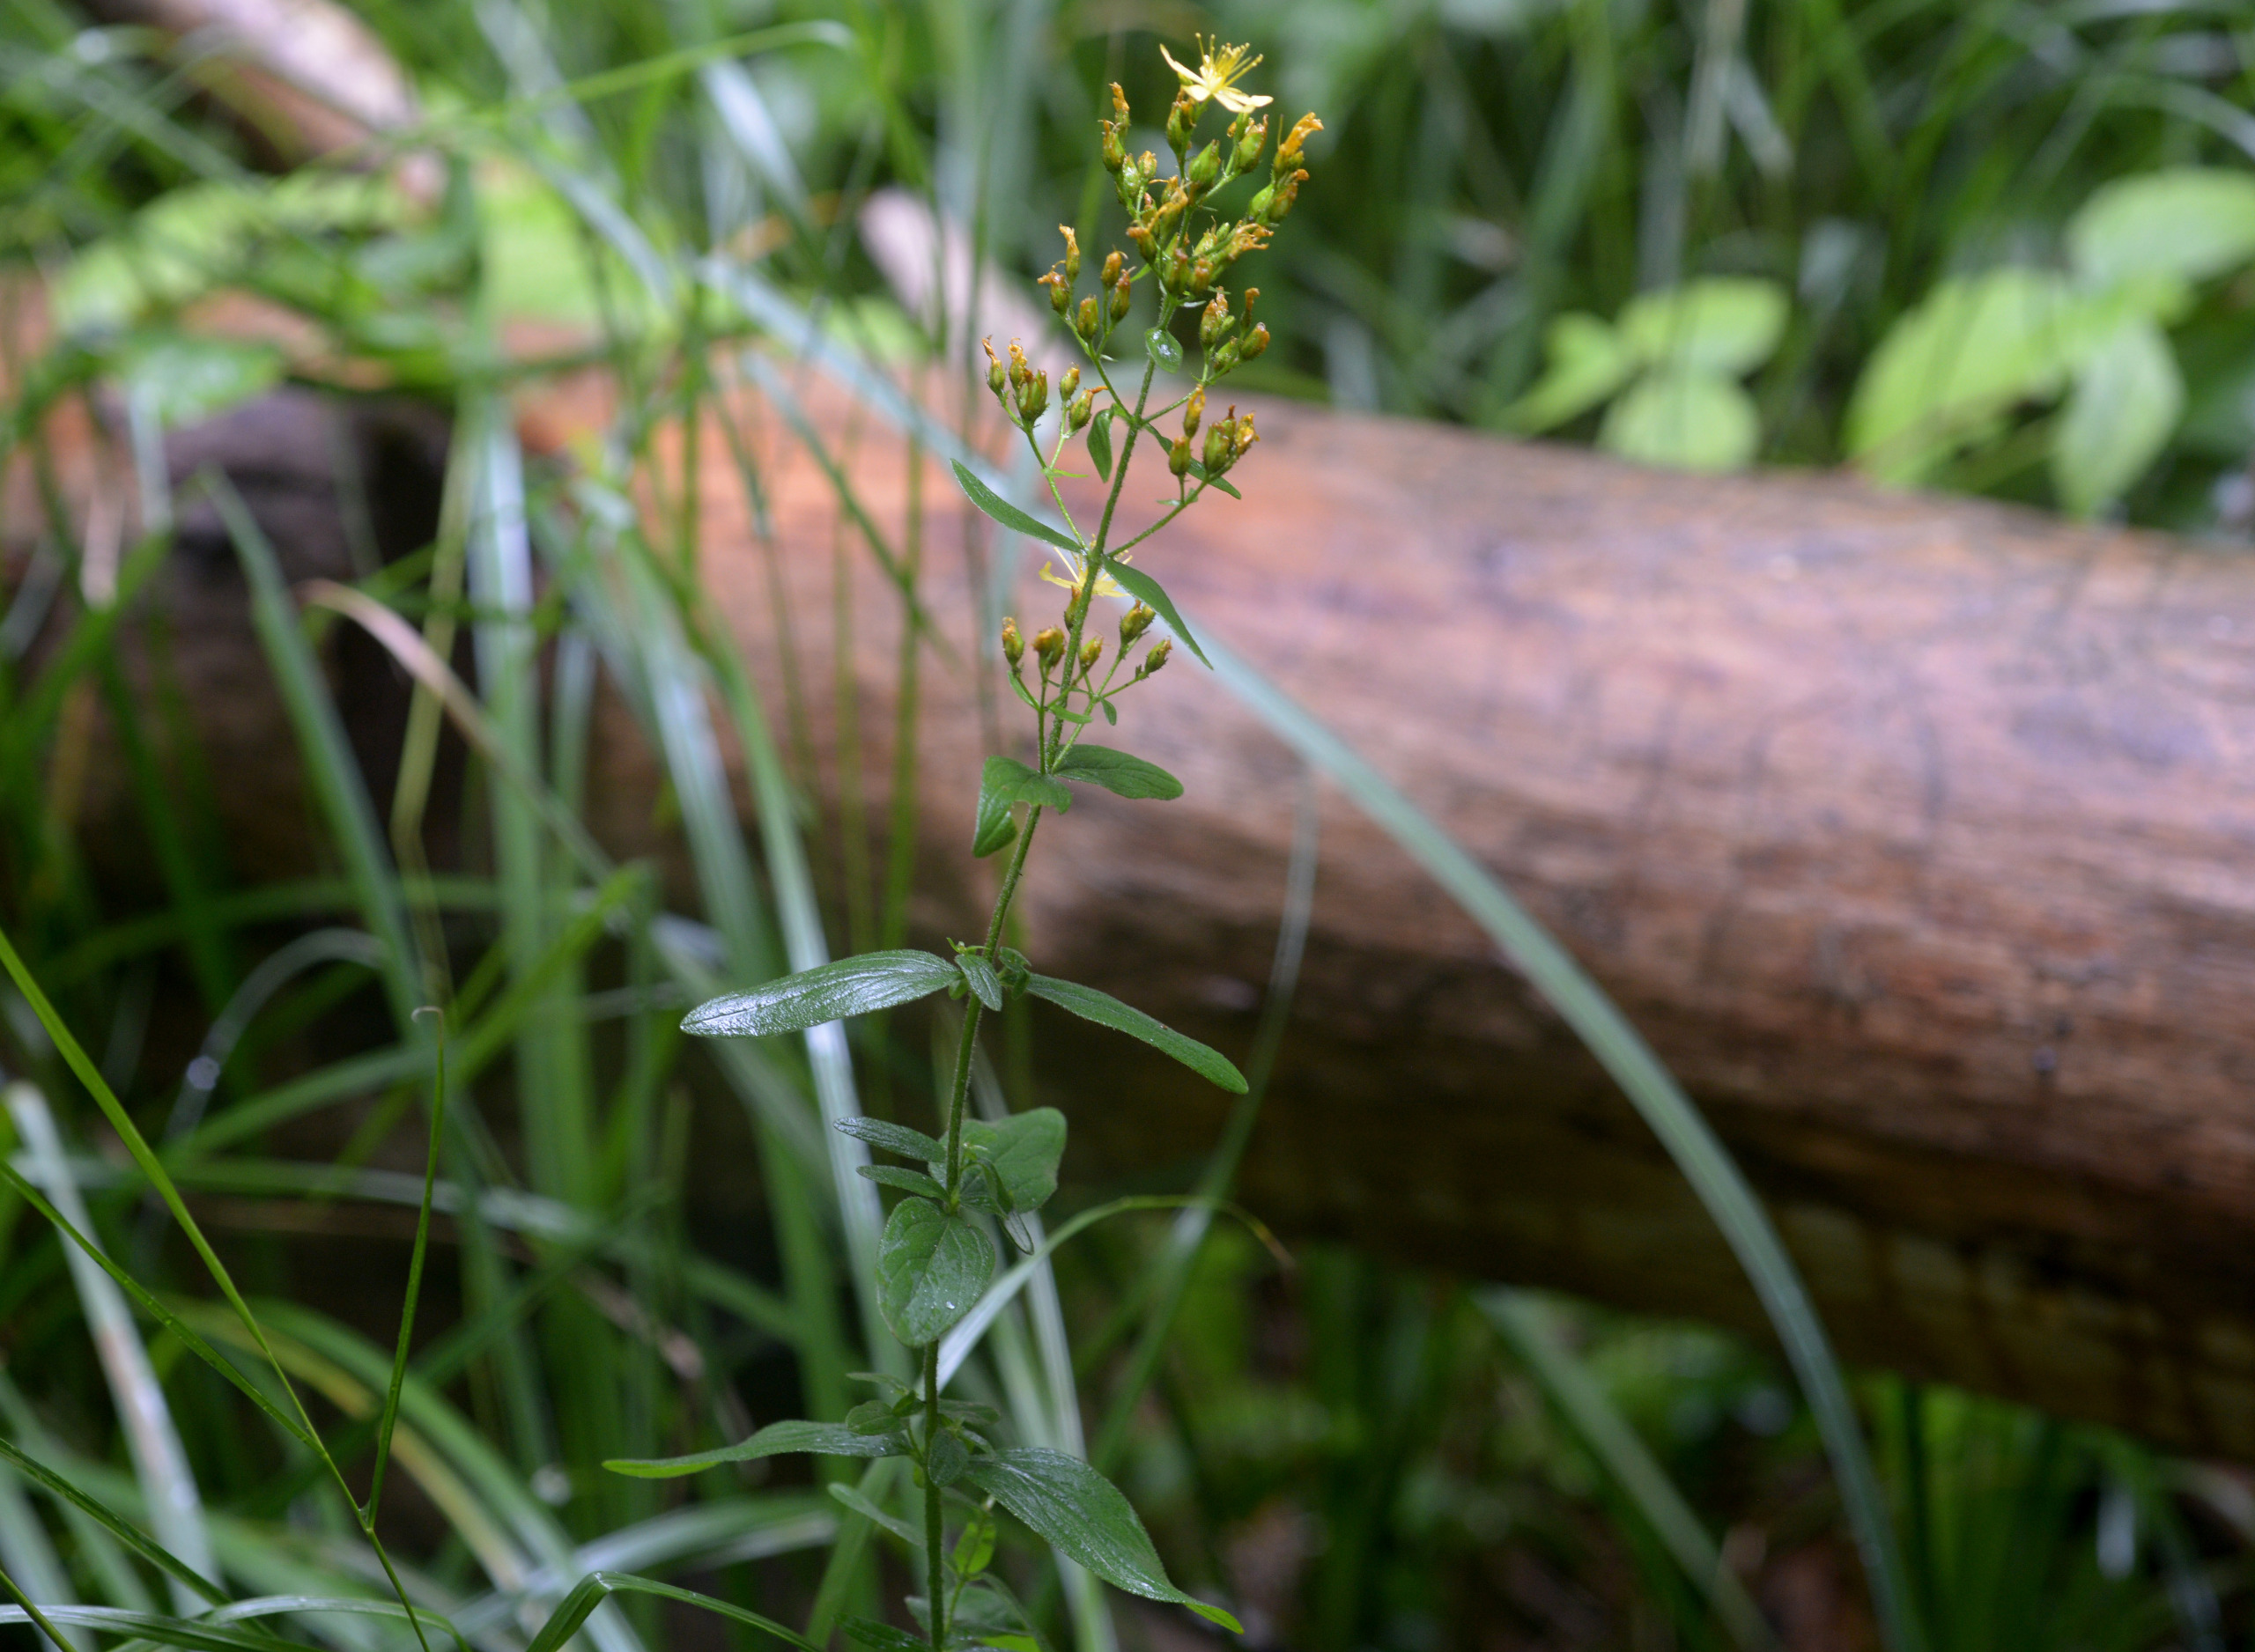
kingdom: Plantae
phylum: Tracheophyta
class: Magnoliopsida
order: Malpighiales
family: Hypericaceae
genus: Hypericum
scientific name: Hypericum hirsutum
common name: Lådden perikon
